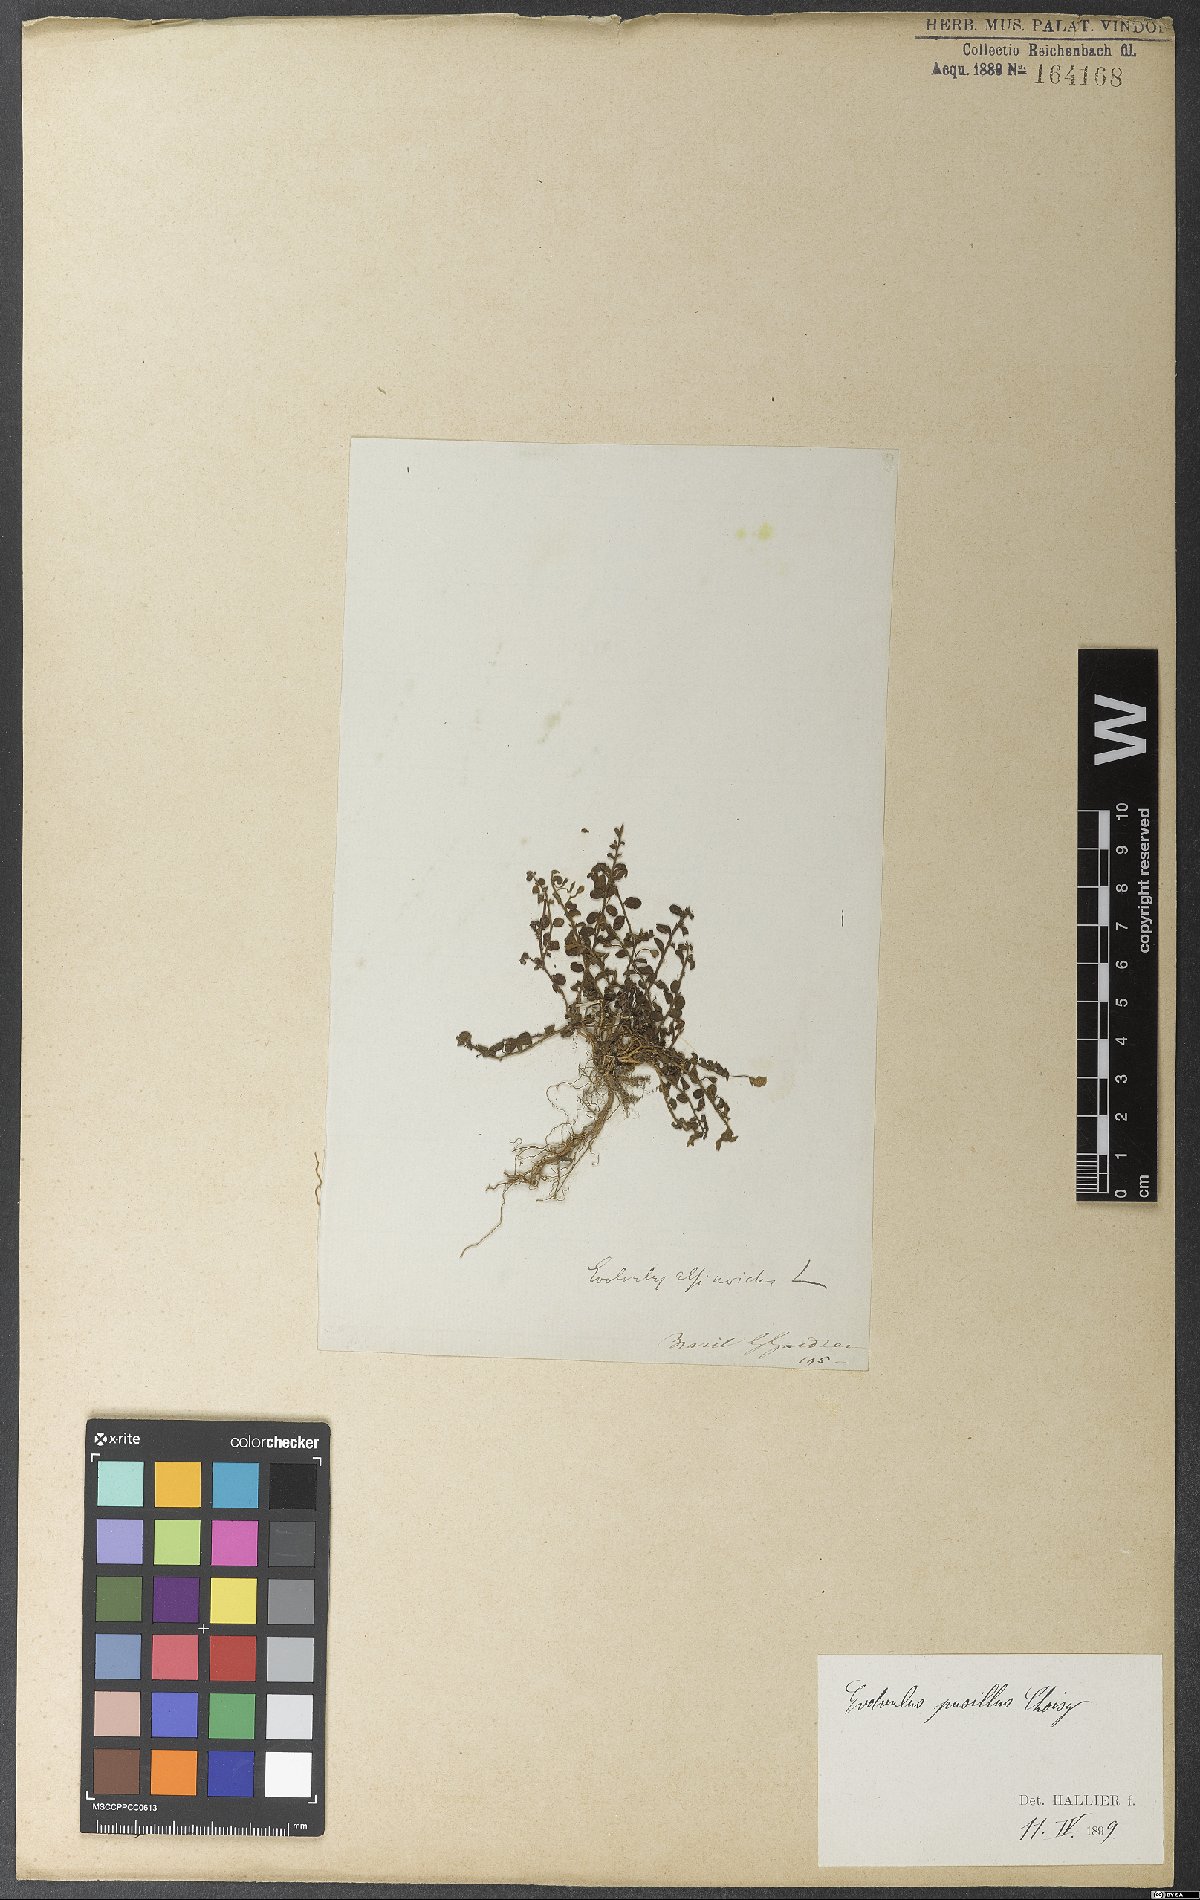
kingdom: Plantae
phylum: Tracheophyta
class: Magnoliopsida
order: Solanales
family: Convolvulaceae
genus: Evolvulus
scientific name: Evolvulus pusillus
